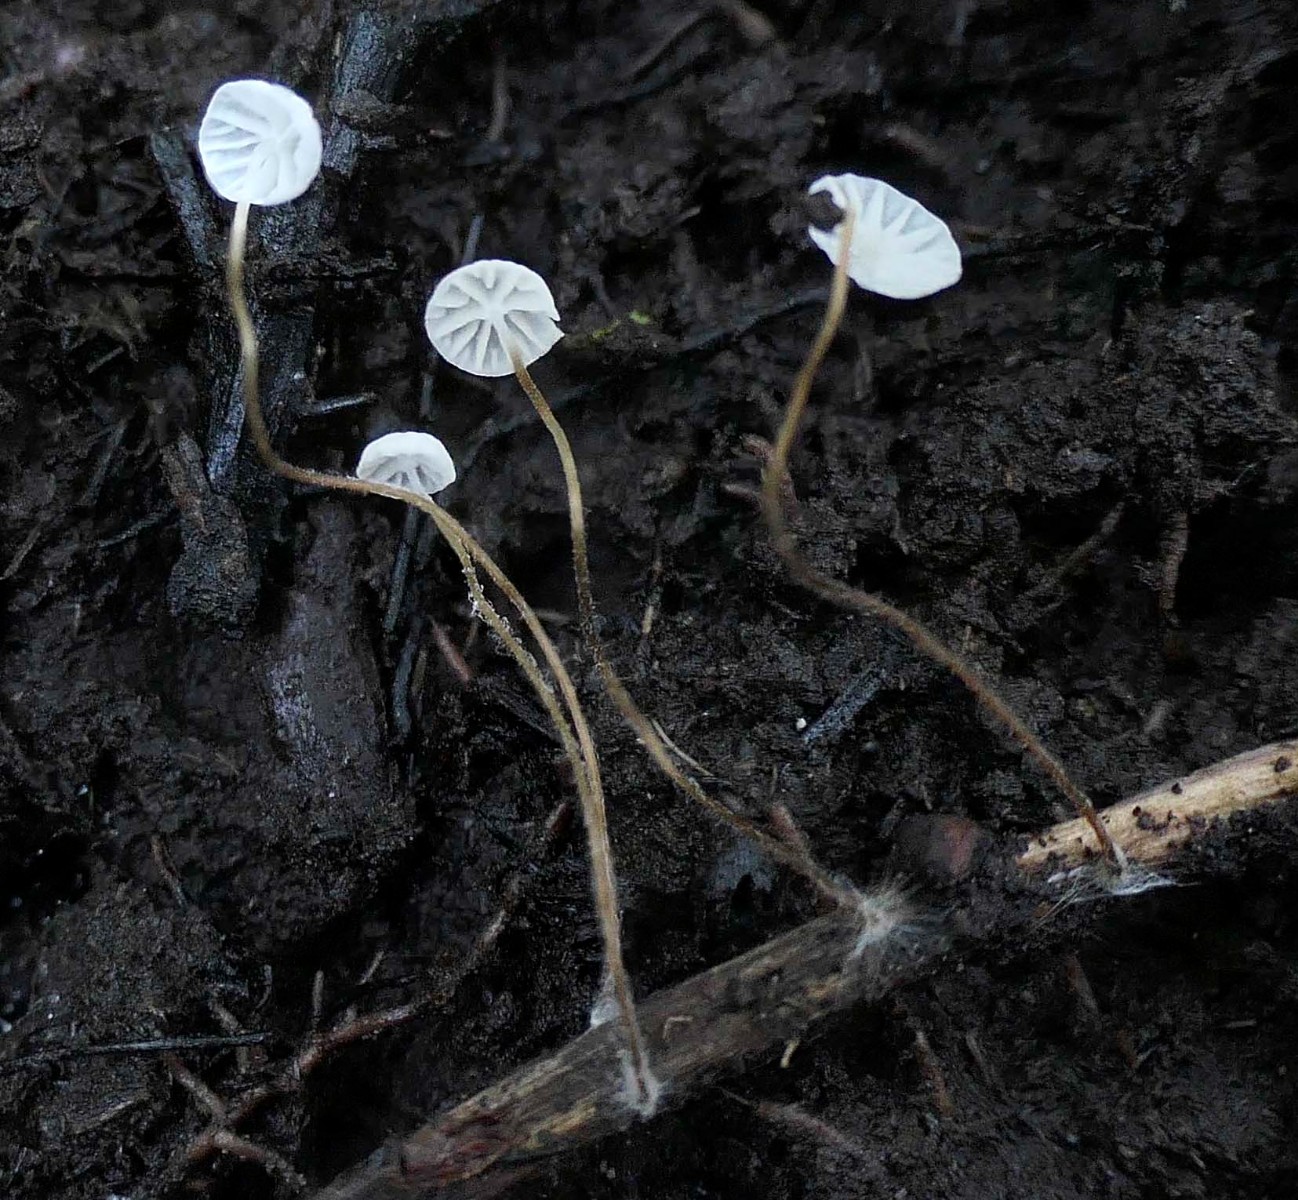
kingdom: Fungi
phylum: Basidiomycota
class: Agaricomycetes
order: Agaricales
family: Marasmiaceae
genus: Marasmius
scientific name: Marasmius
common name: bruskhat
